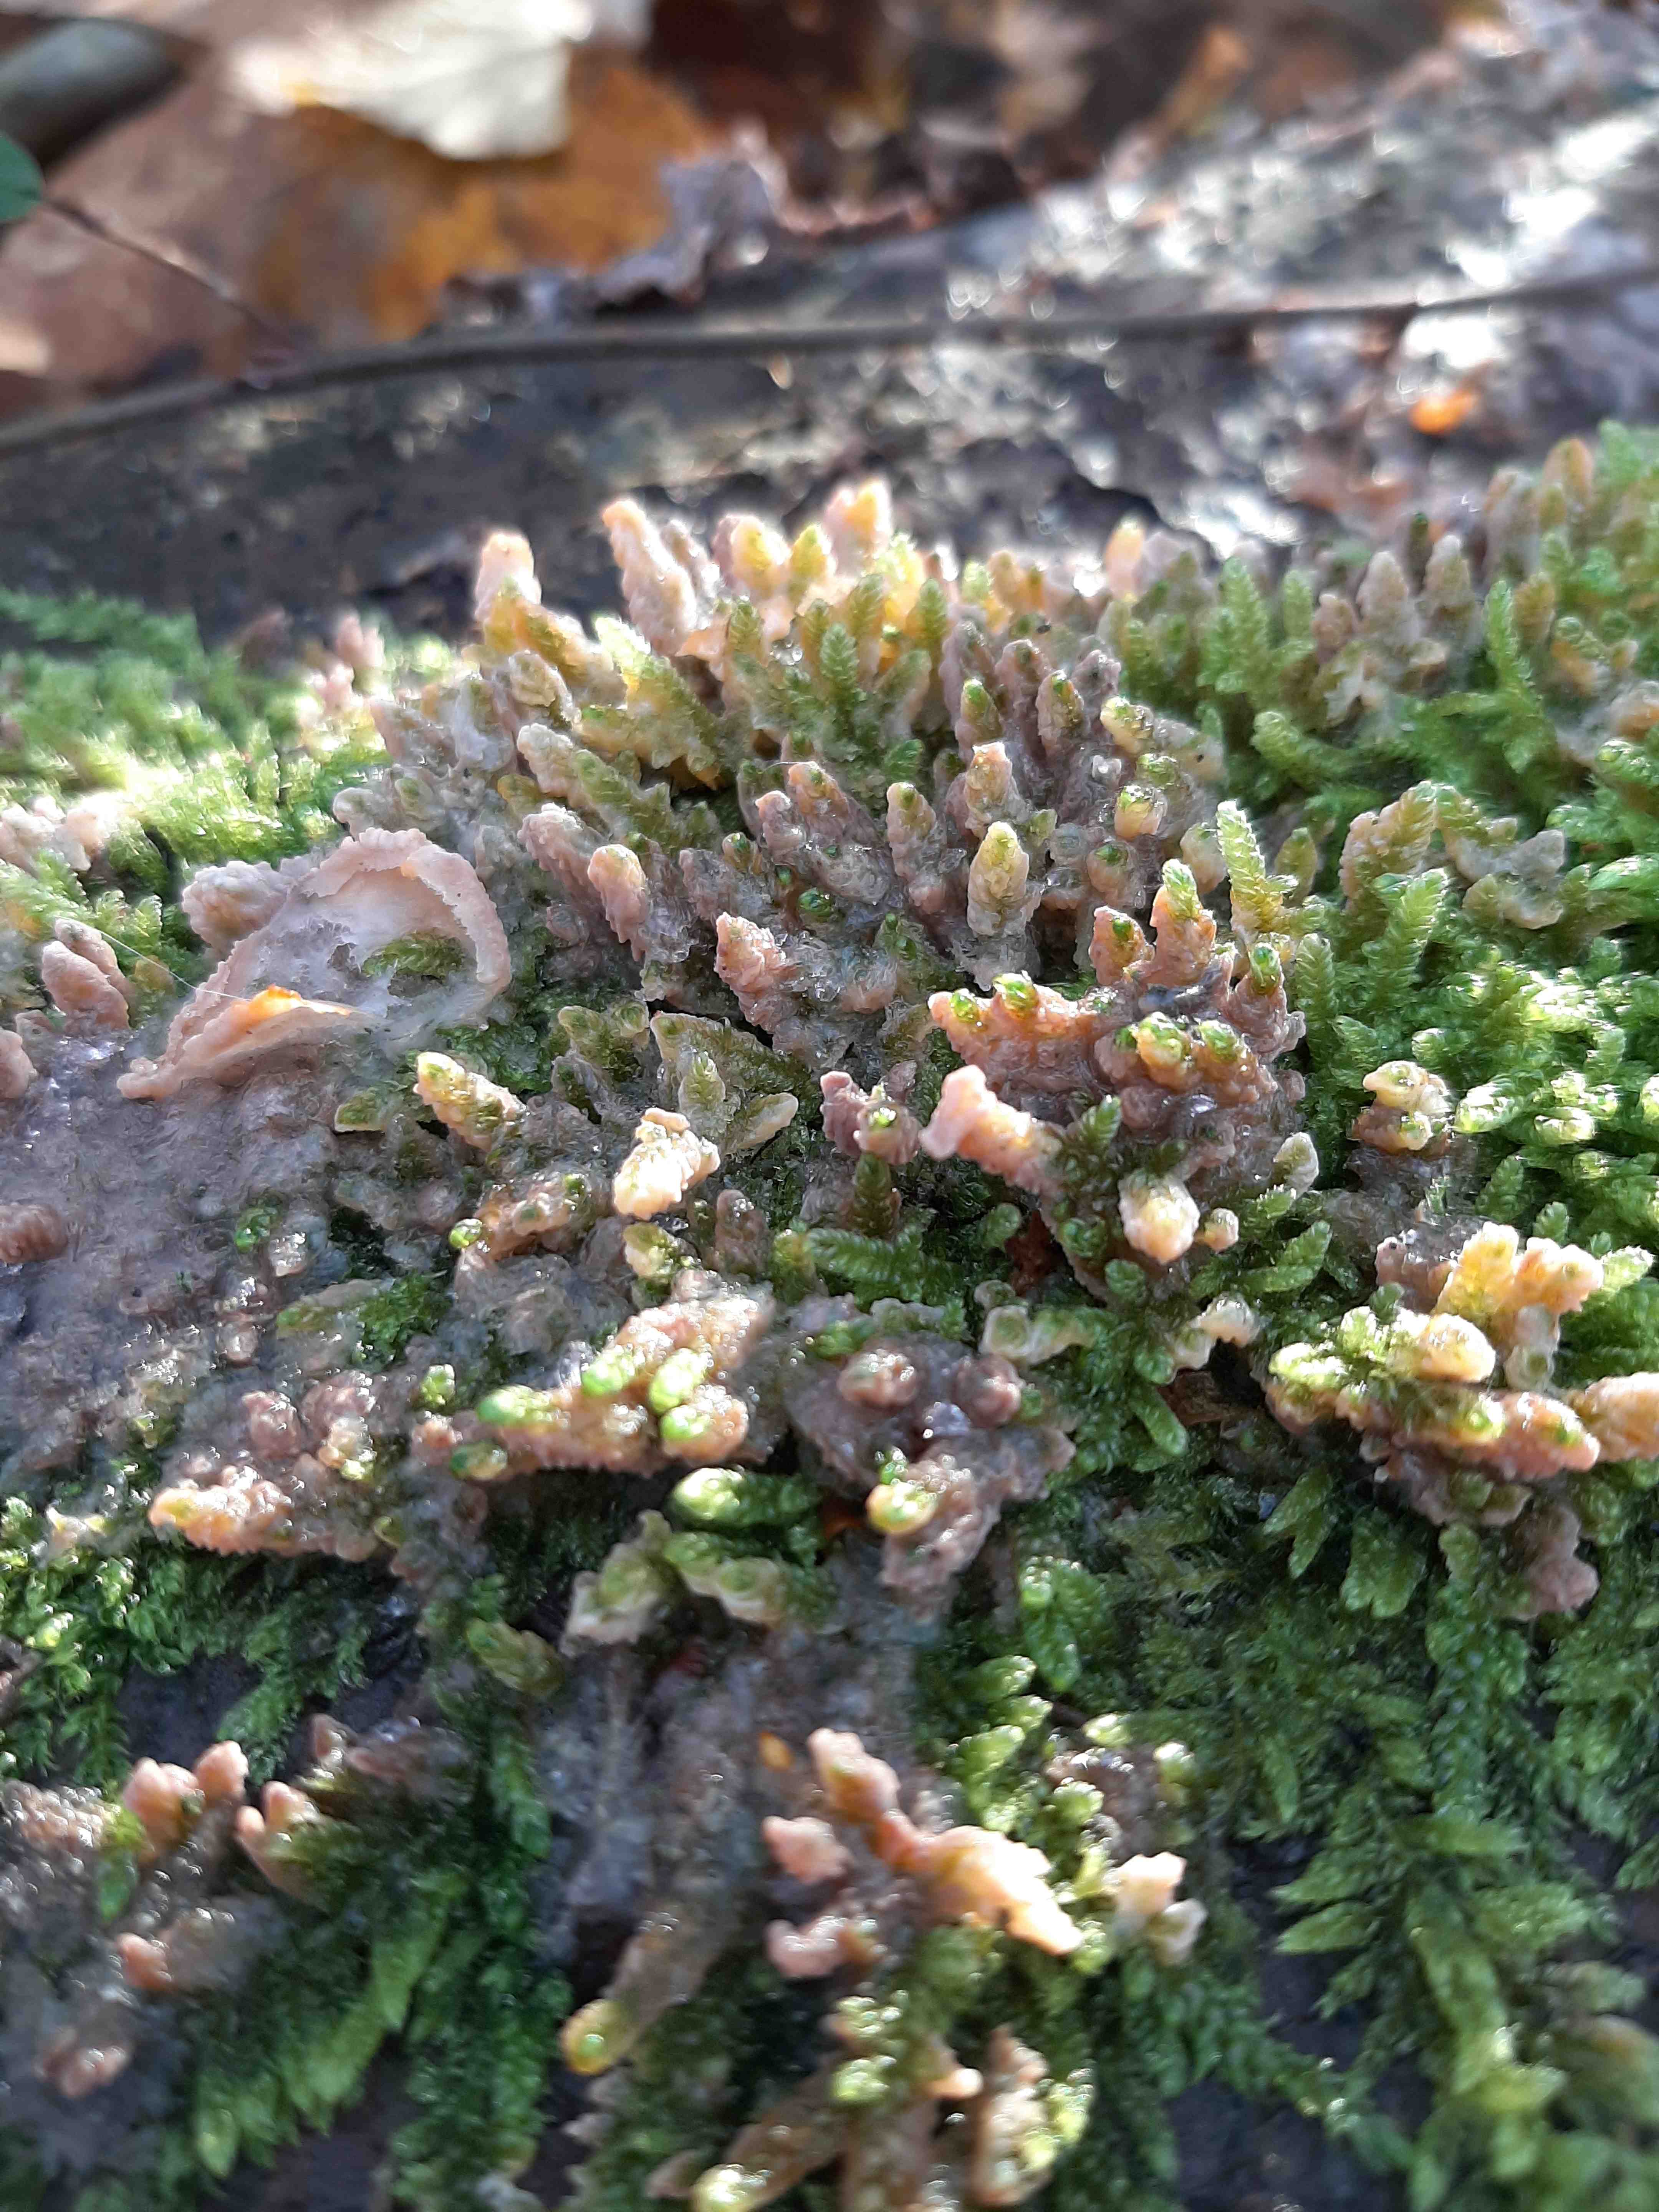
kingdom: Fungi
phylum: Basidiomycota
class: Agaricomycetes
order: Polyporales
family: Meruliaceae
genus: Phlebia
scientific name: Phlebia radiata
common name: stråle-åresvamp
